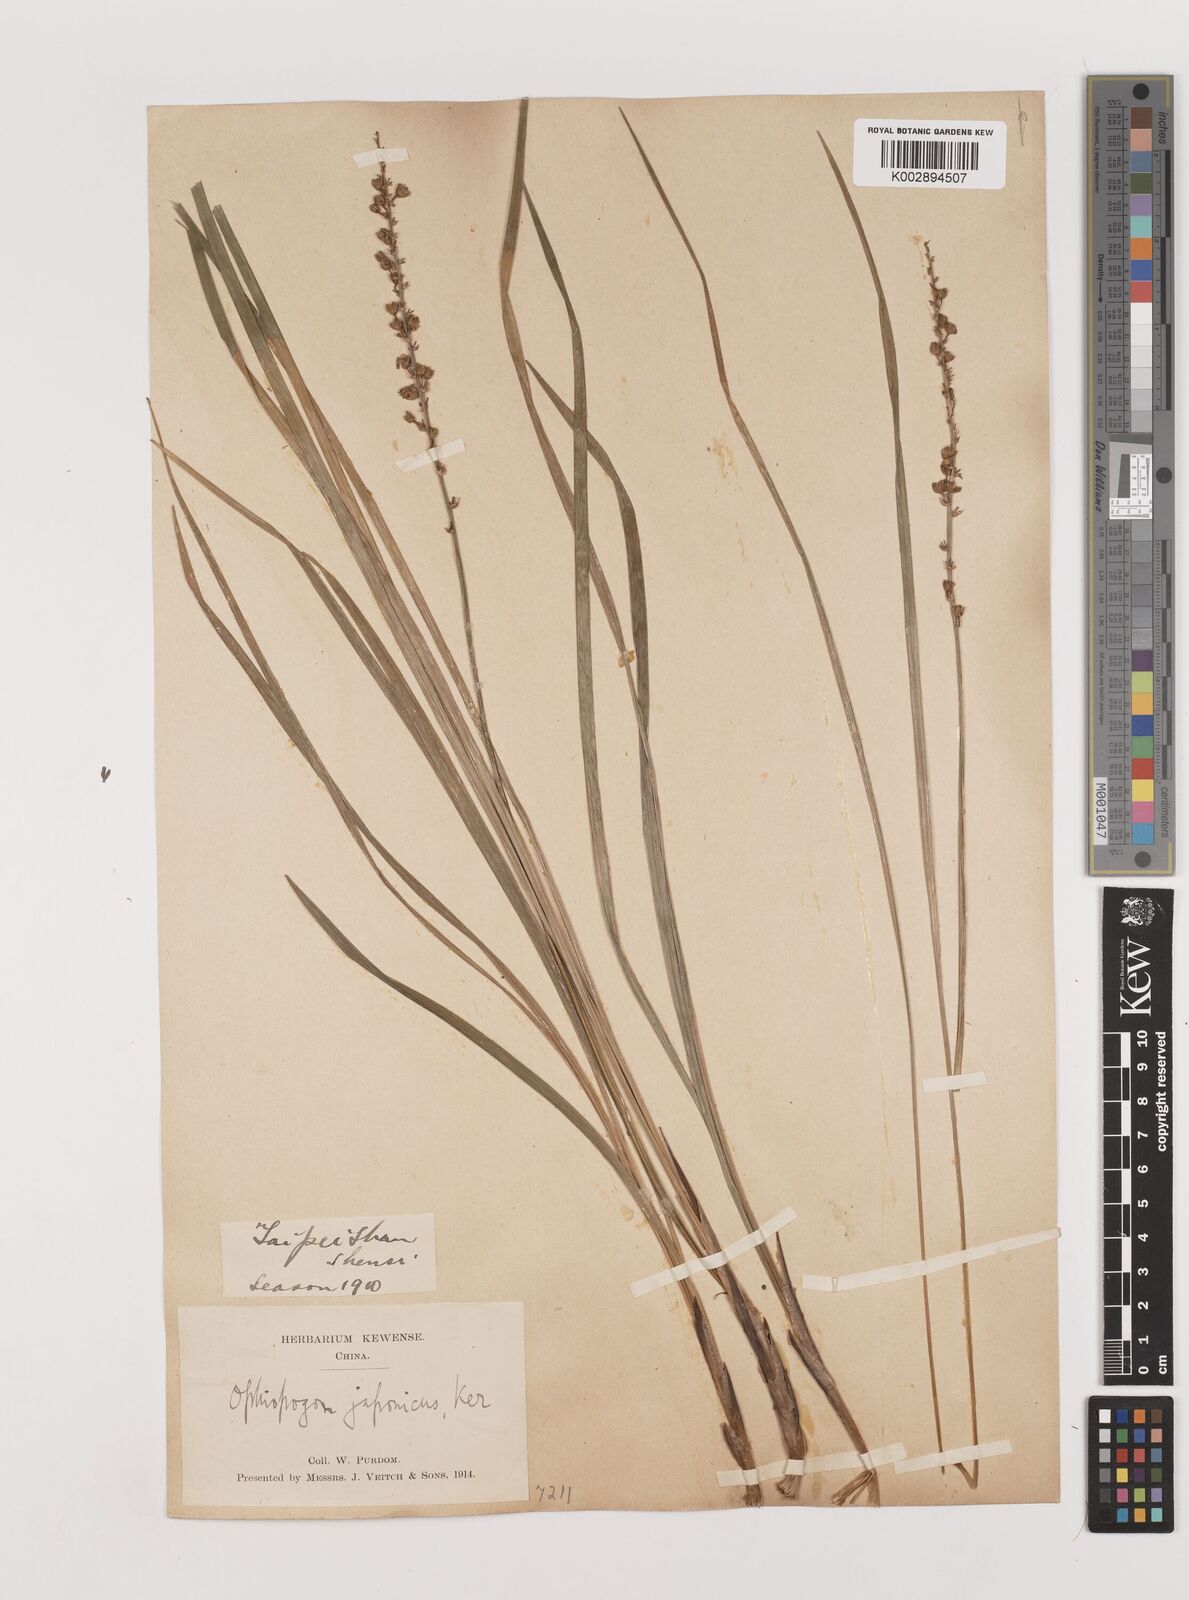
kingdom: Plantae
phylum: Tracheophyta
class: Liliopsida
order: Asparagales
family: Asparagaceae
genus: Liriope
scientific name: Liriope spicata
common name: Creeping liriope
